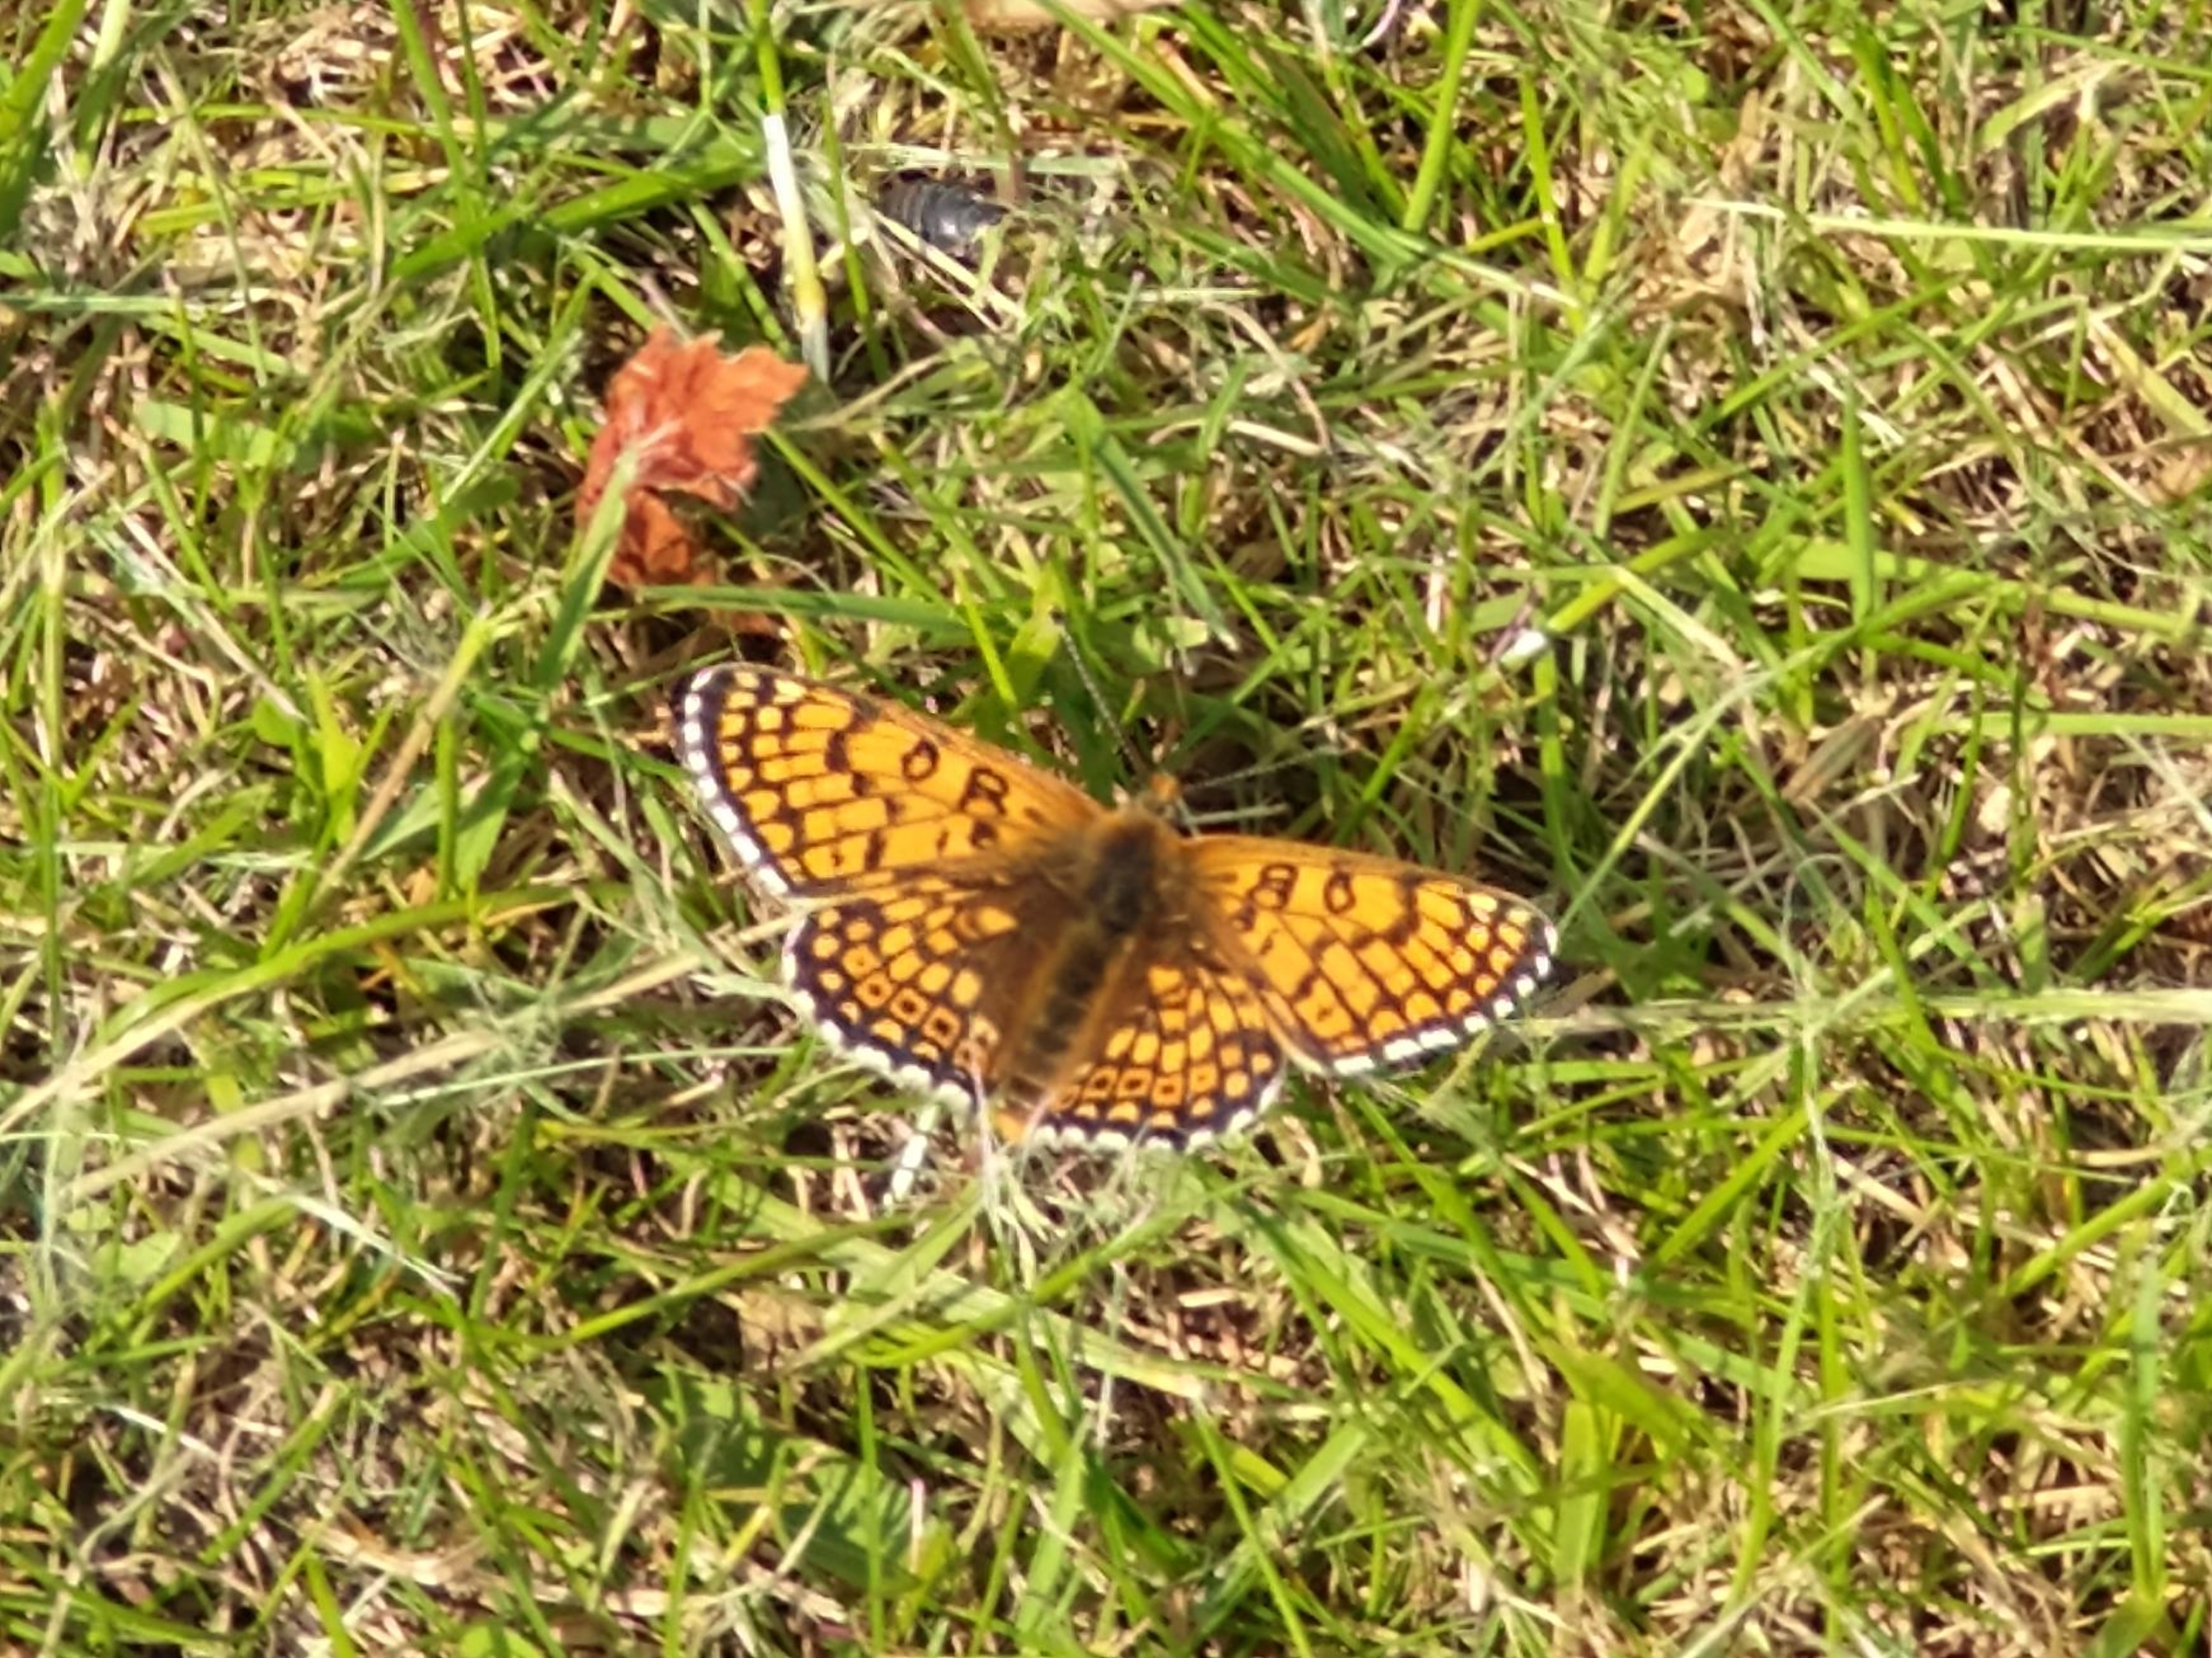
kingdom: Animalia
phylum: Arthropoda
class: Insecta
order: Lepidoptera
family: Nymphalidae
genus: Melitaea
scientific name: Melitaea cinxia
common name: Okkergul pletvinge
